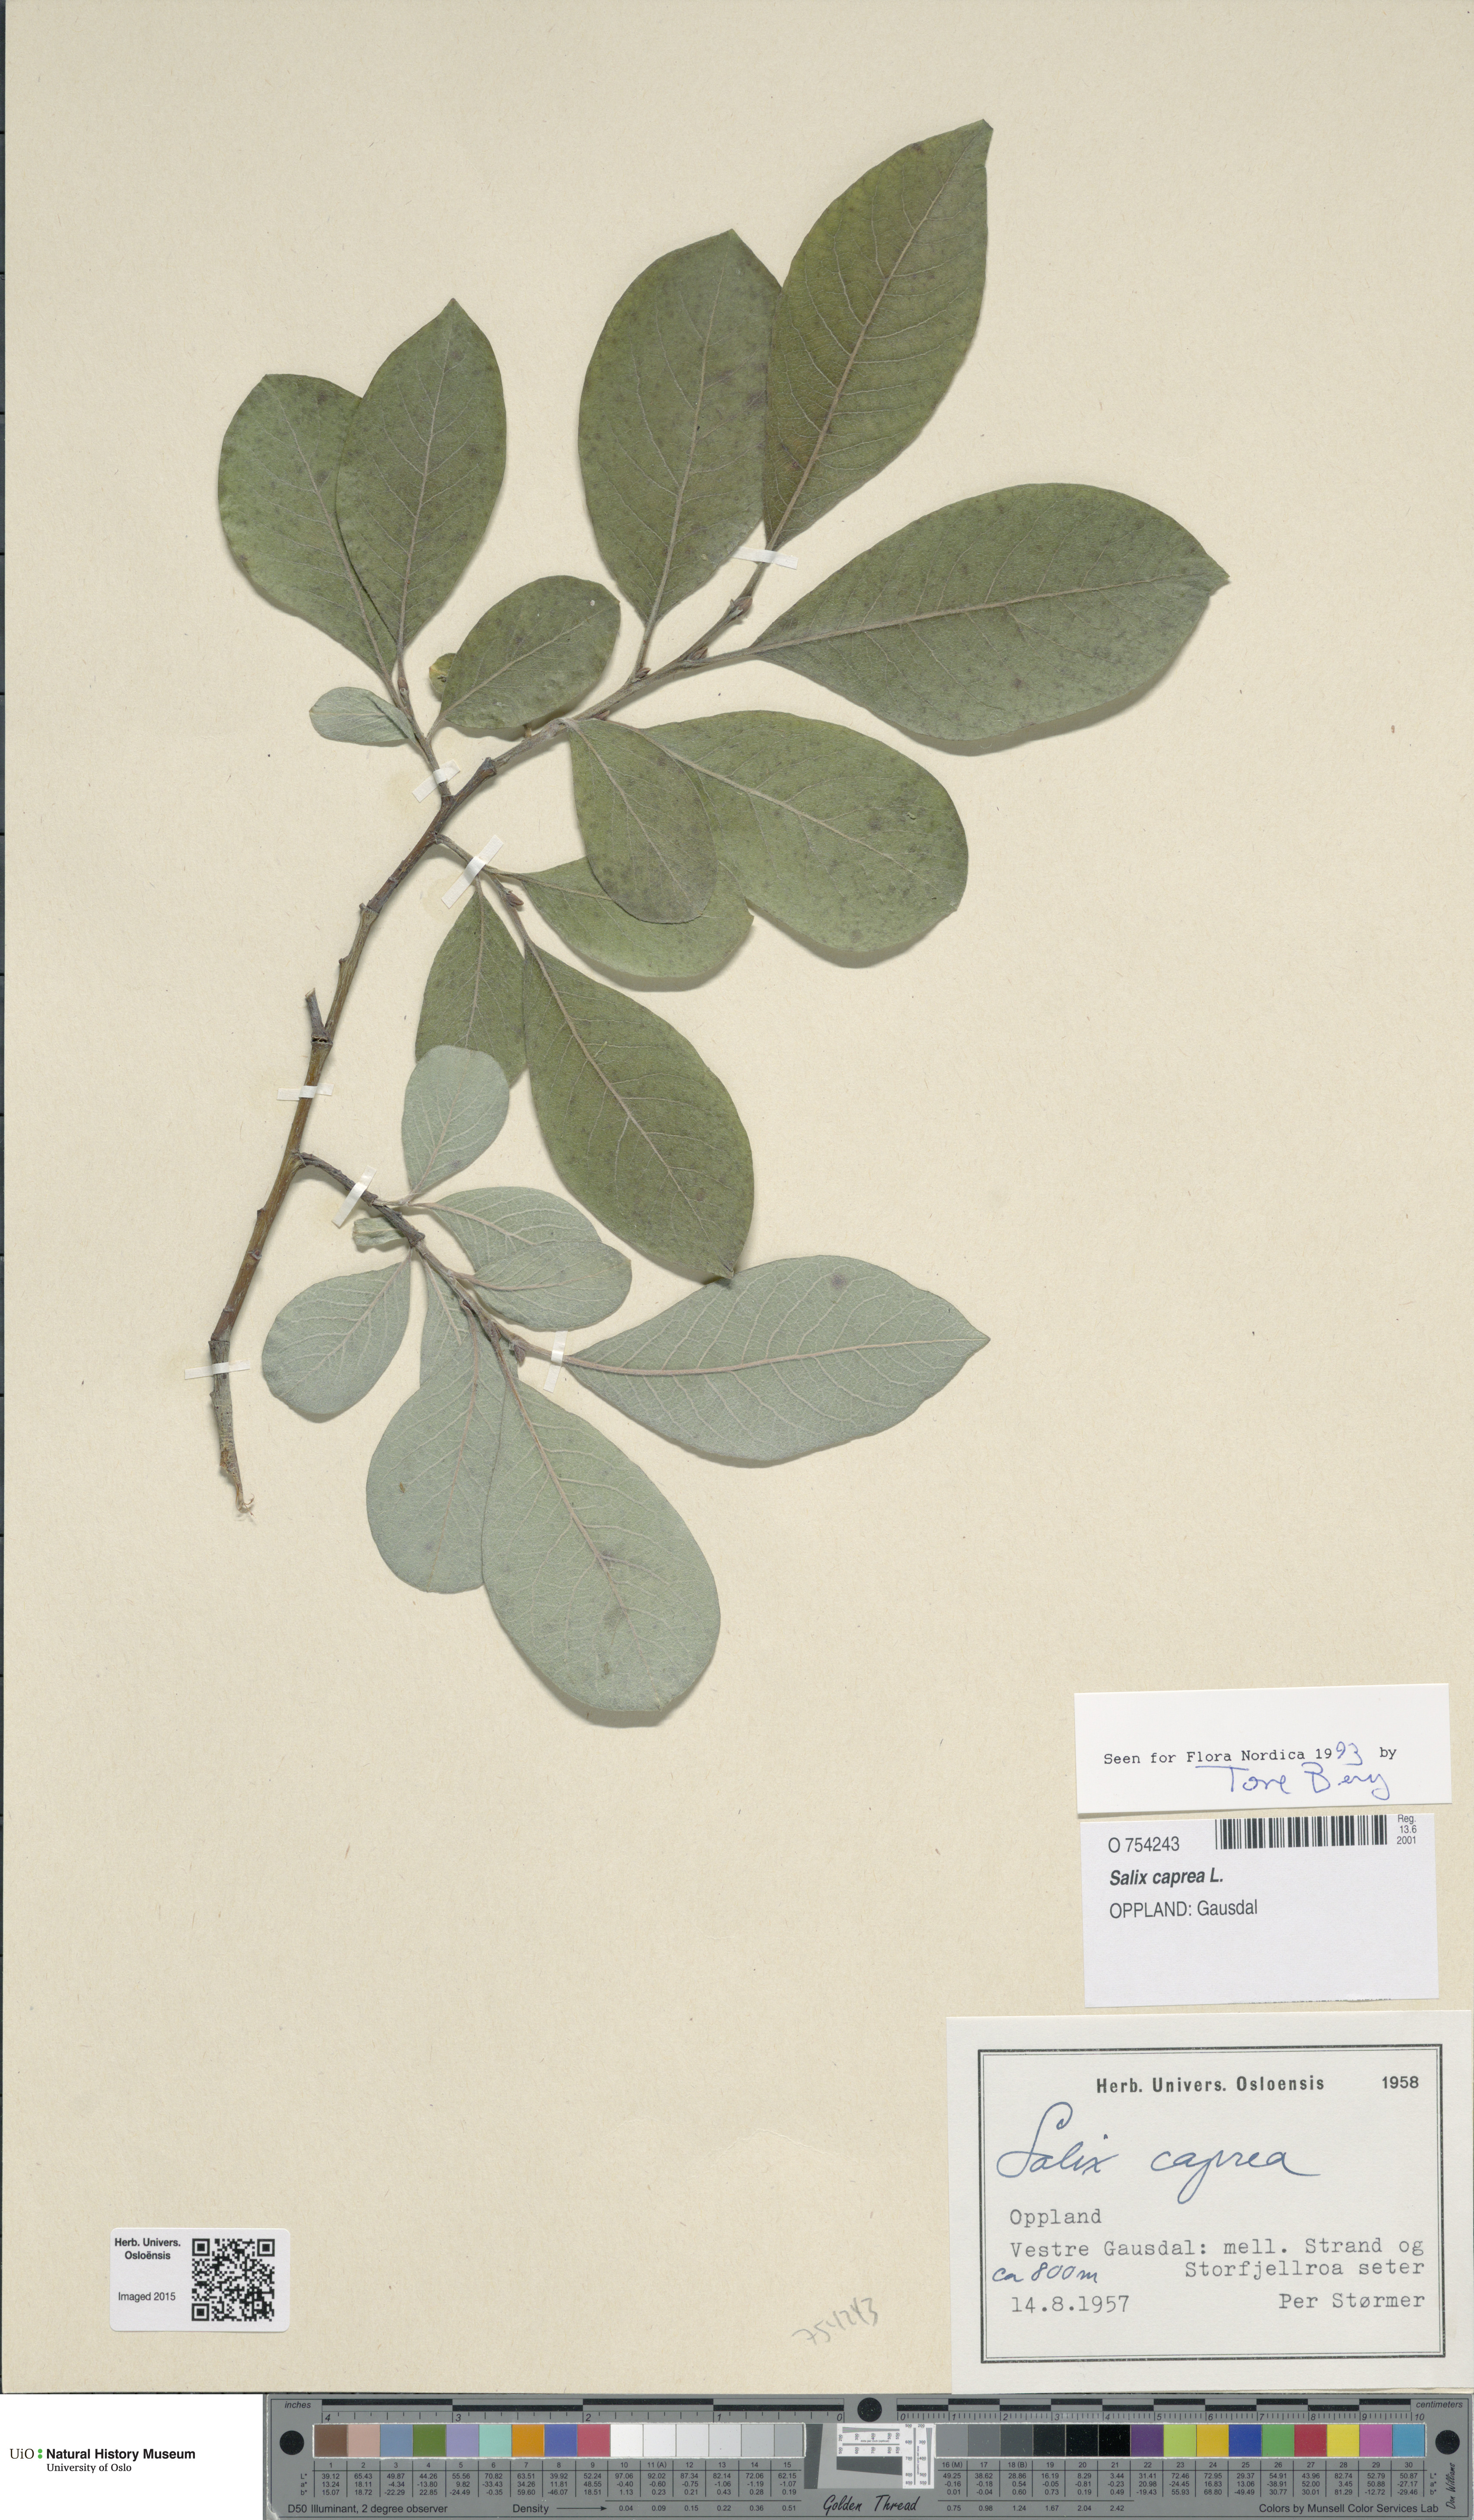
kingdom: Plantae
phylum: Tracheophyta
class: Magnoliopsida
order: Malpighiales
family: Salicaceae
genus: Salix
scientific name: Salix caprea
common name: Goat willow
